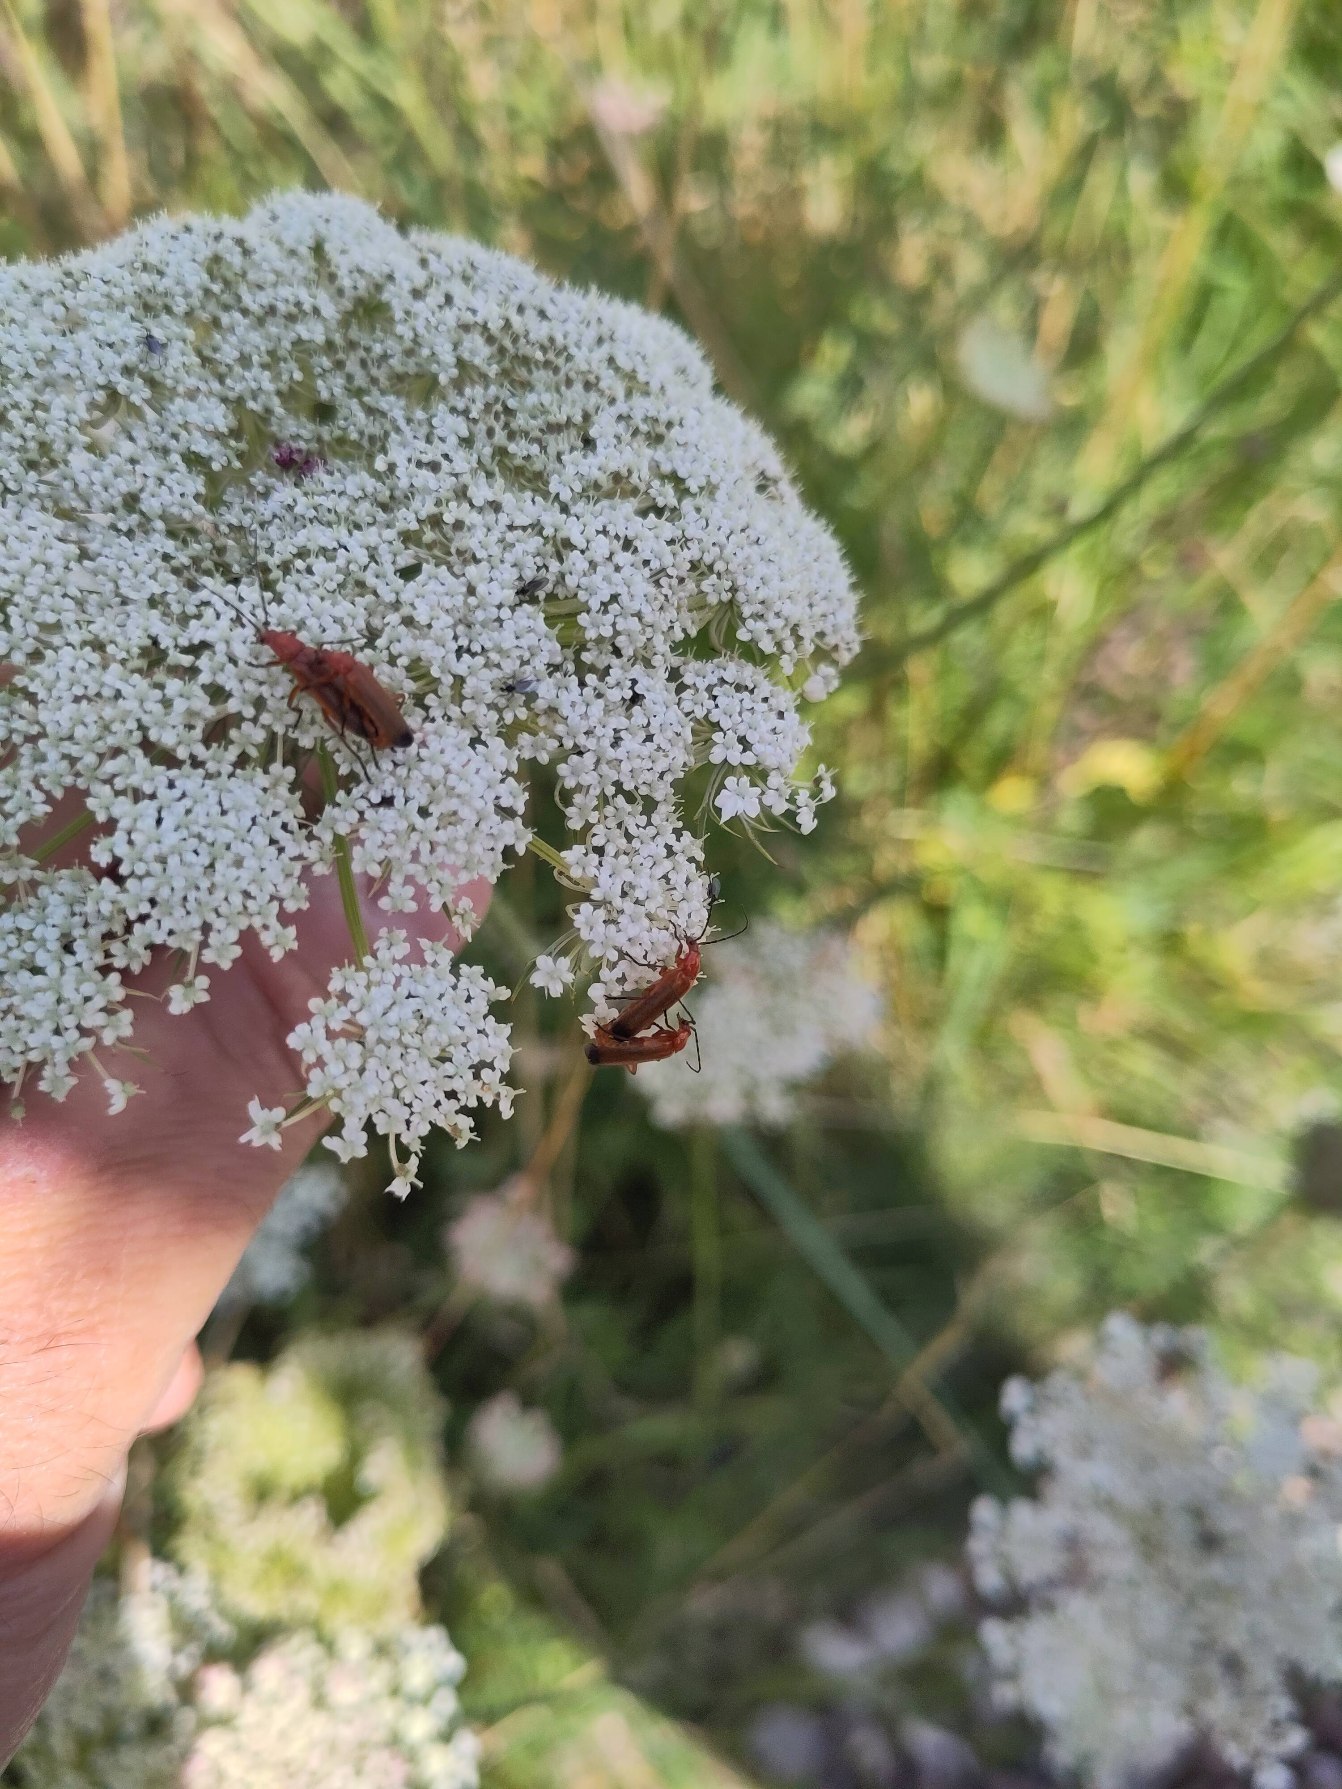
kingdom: Animalia
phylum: Arthropoda
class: Insecta
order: Coleoptera
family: Cantharidae
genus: Rhagonycha
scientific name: Rhagonycha fulva
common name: Præstebille
